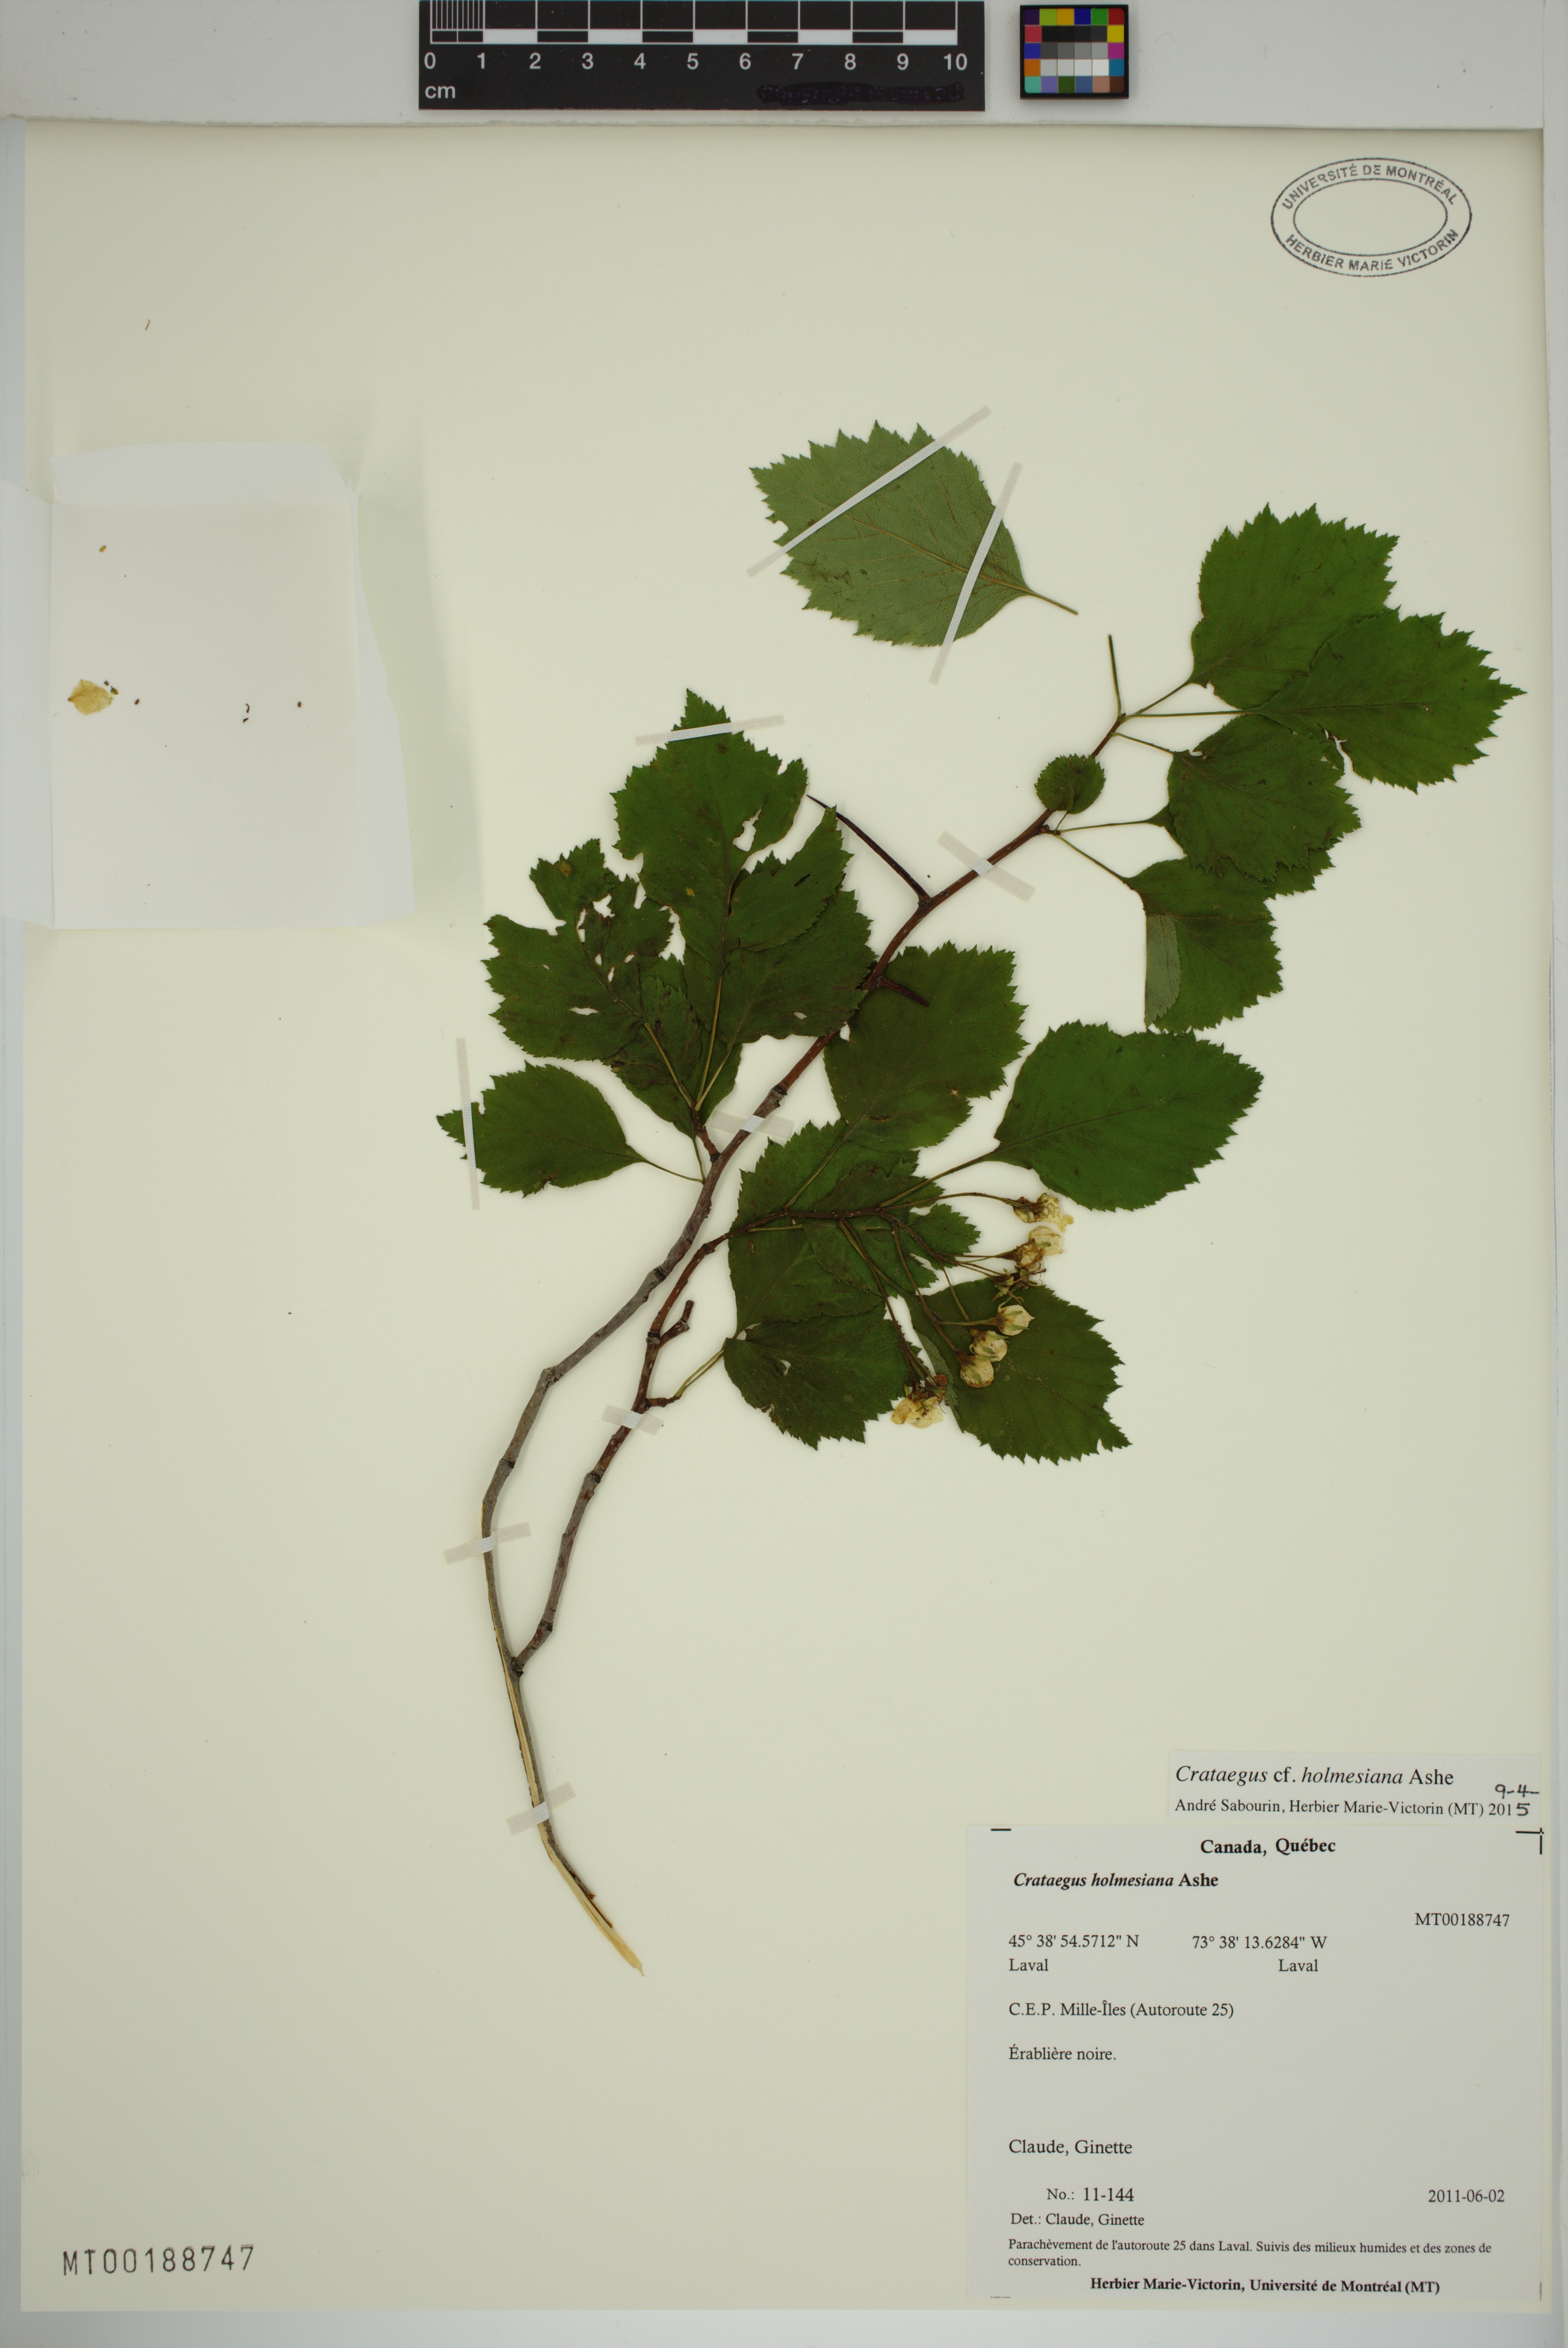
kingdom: Plantae
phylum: Tracheophyta
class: Magnoliopsida
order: Rosales
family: Rosaceae
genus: Crataegus
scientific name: Crataegus holmesiana
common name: Holmes' hawthorn
